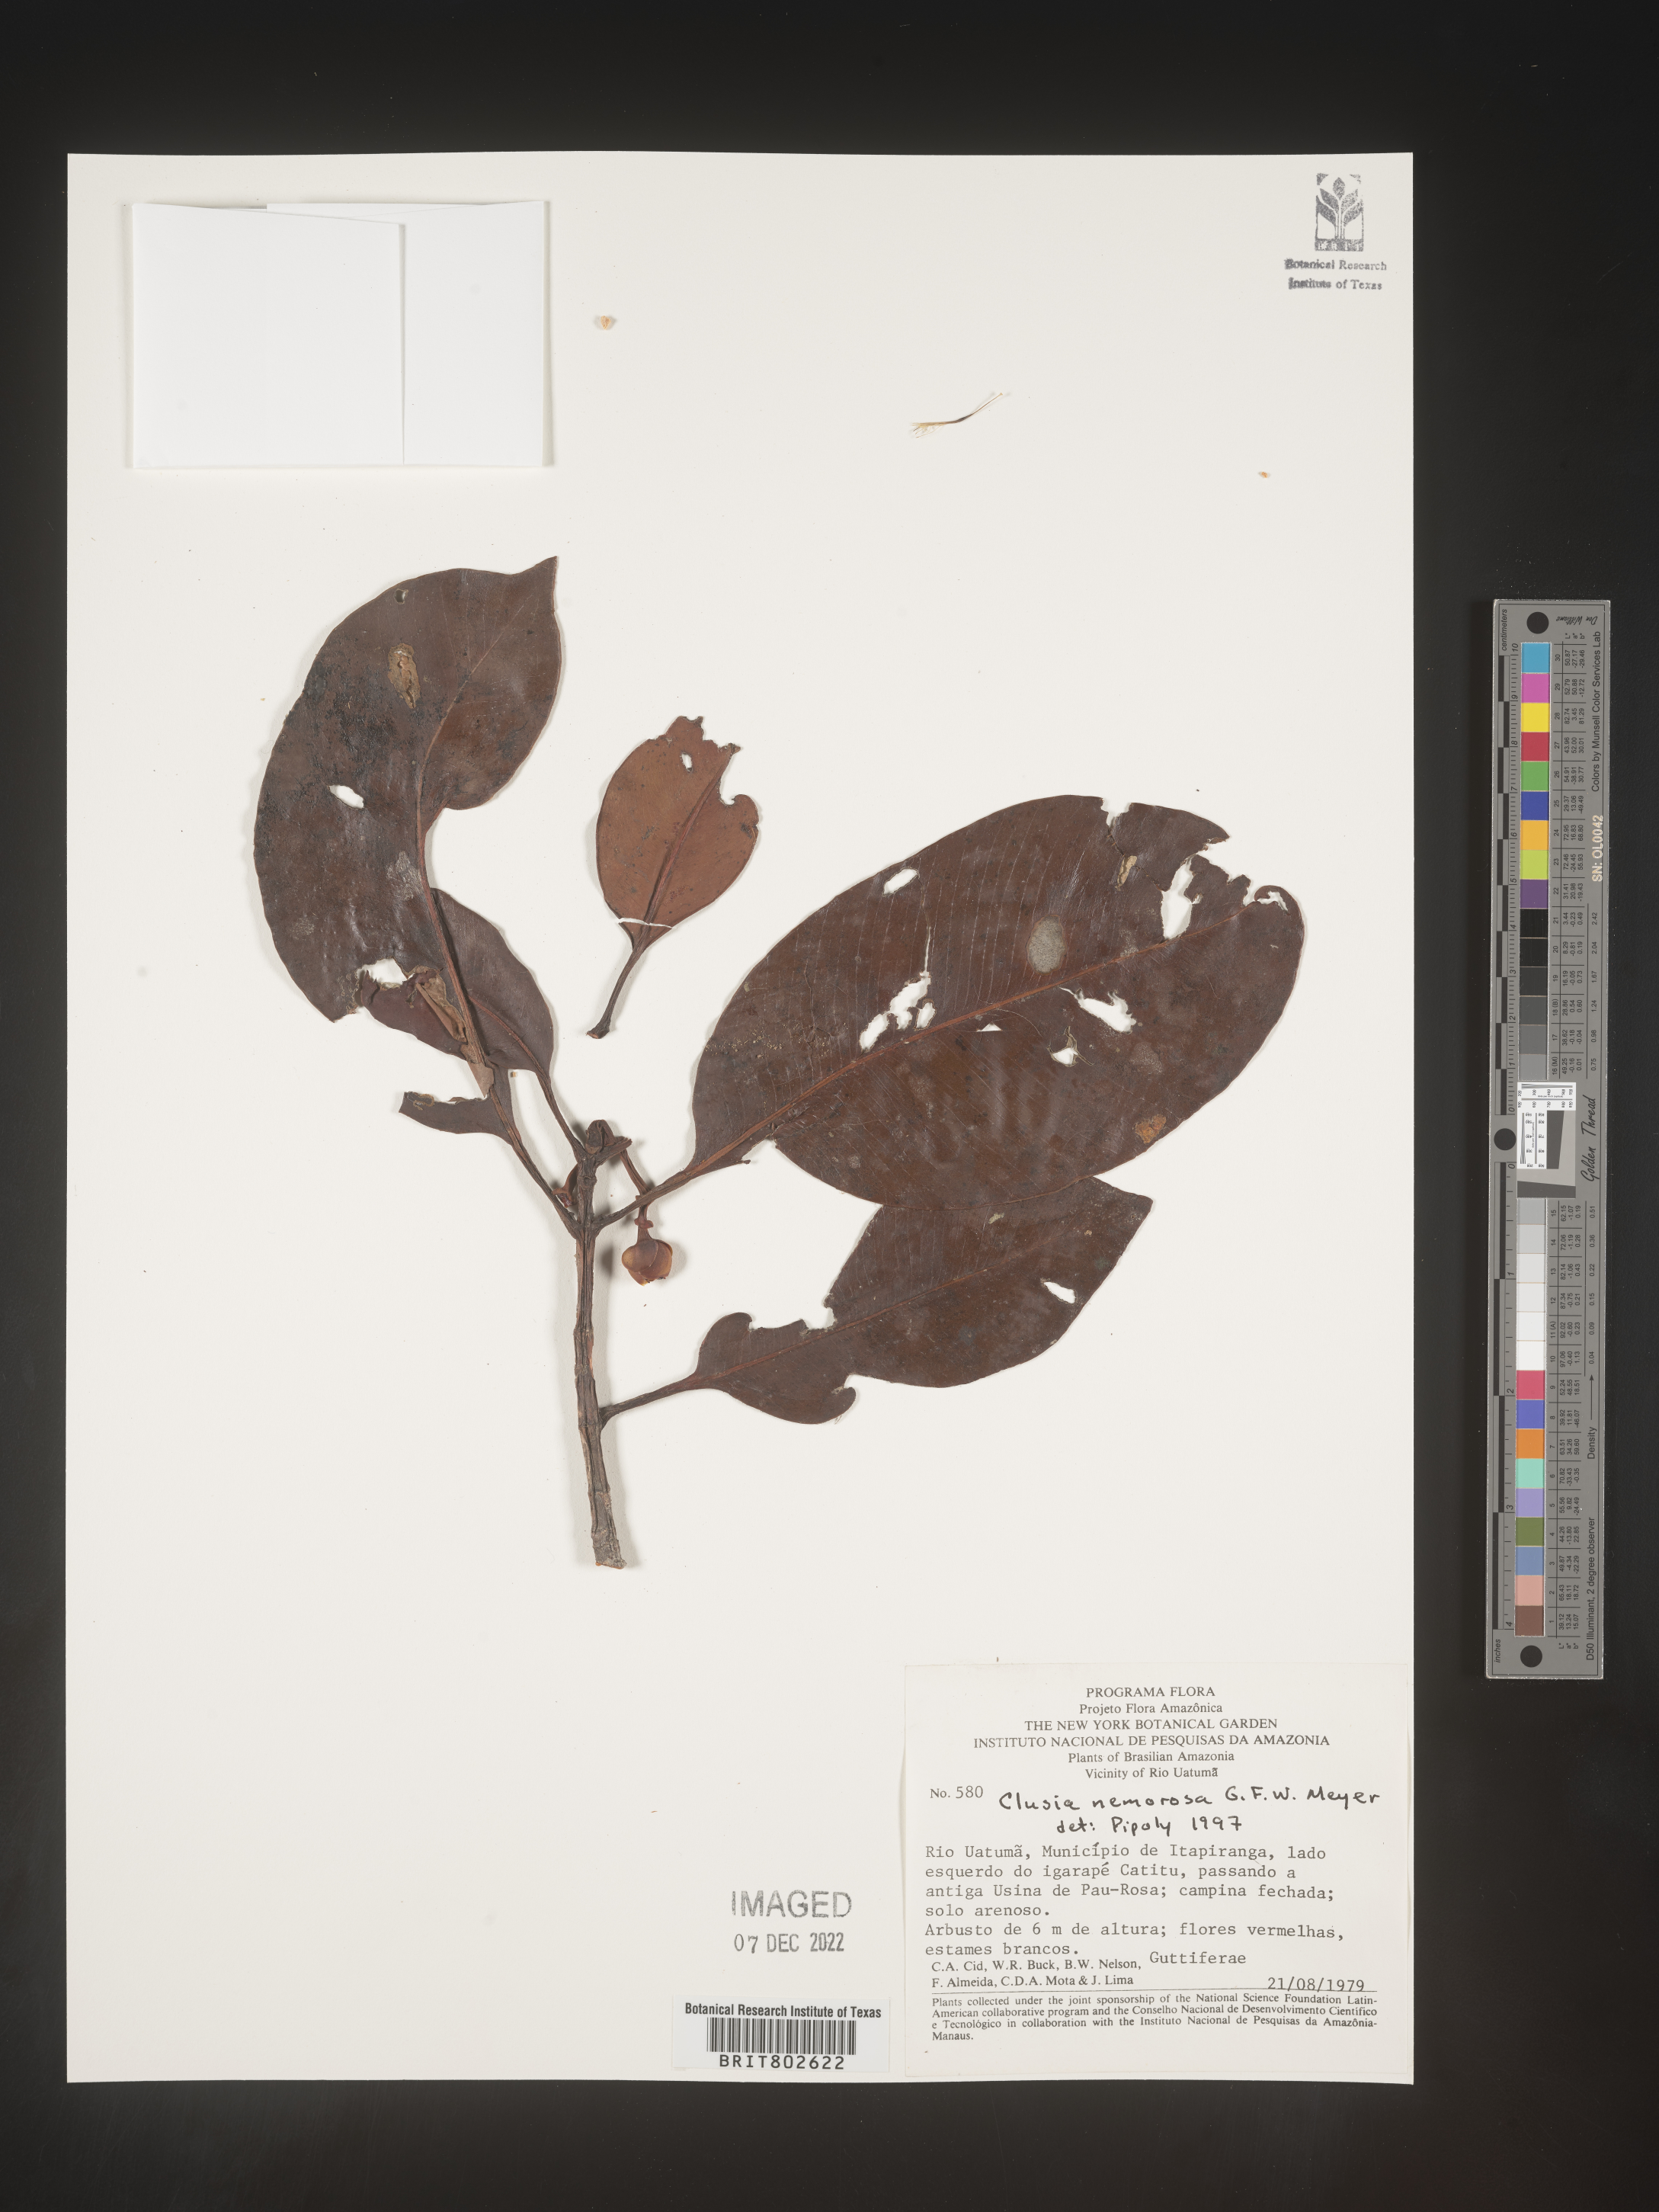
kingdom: Plantae
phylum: Tracheophyta
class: Magnoliopsida
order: Malpighiales
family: Clusiaceae
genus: Clusia
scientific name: Clusia nemorosa
